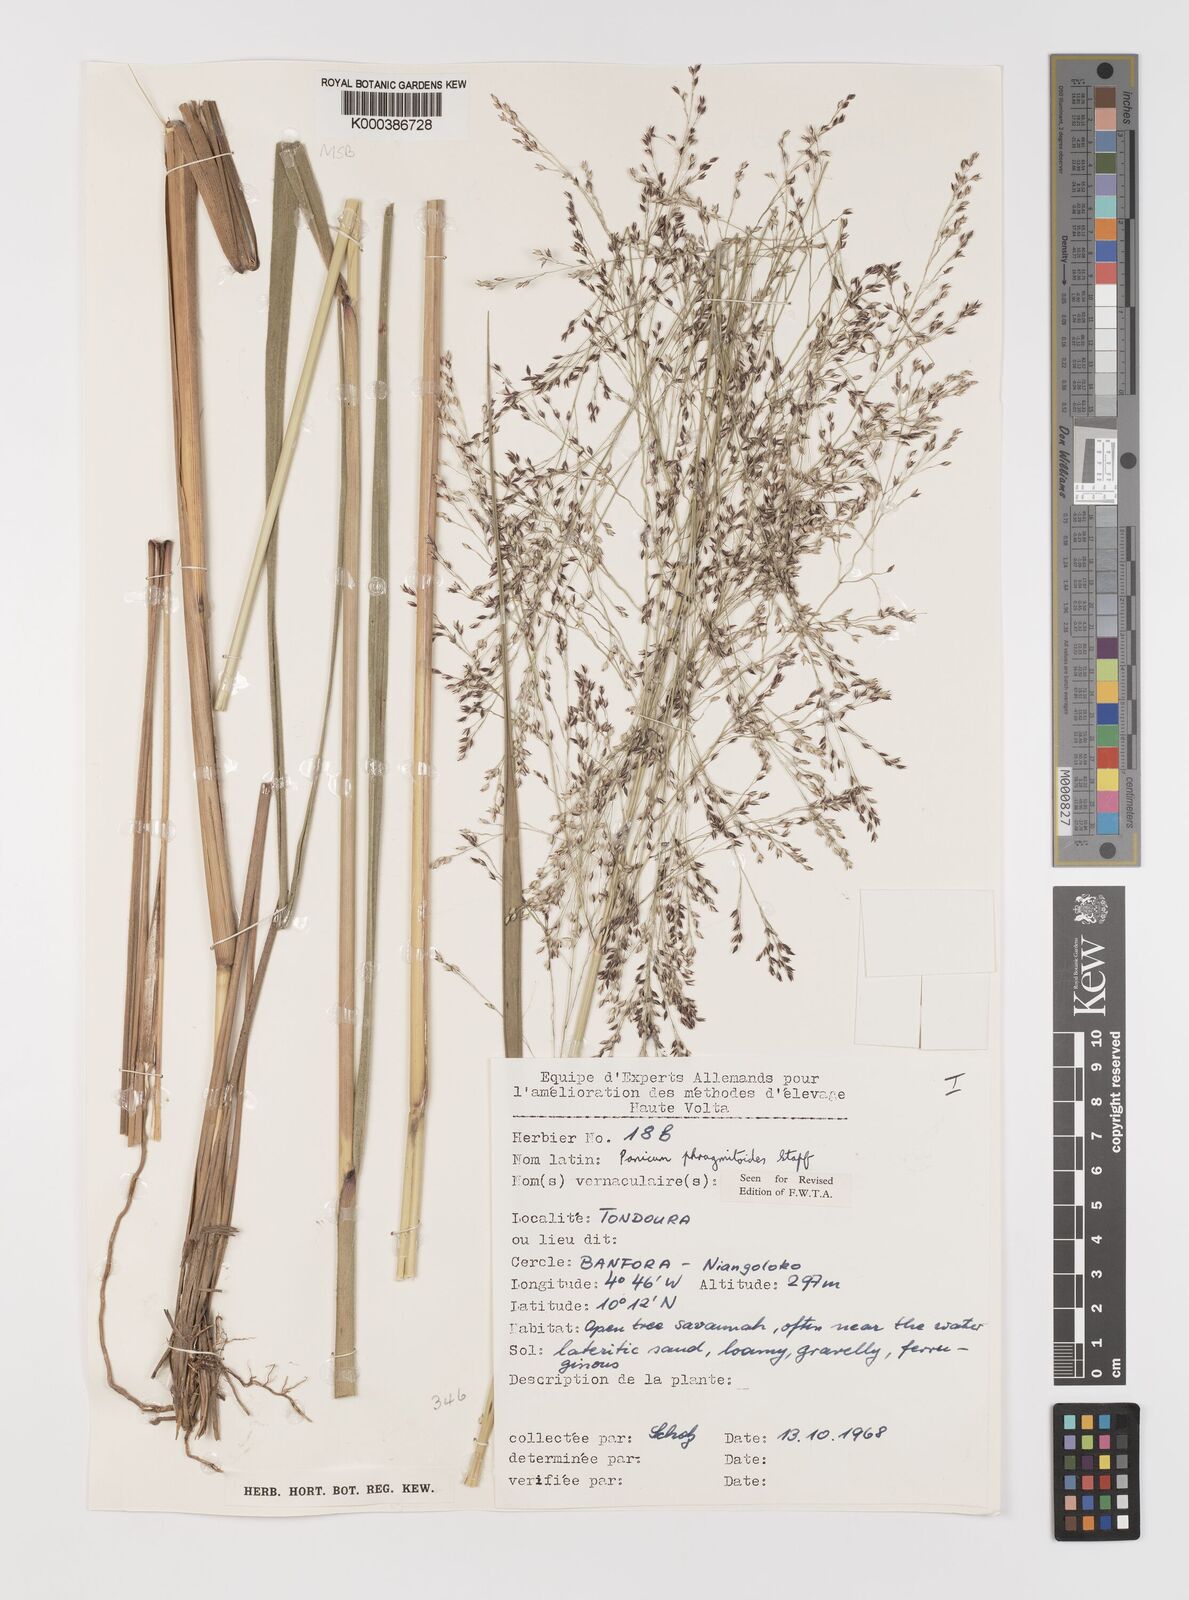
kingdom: Plantae
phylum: Tracheophyta
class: Liliopsida
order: Poales
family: Poaceae
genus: Panicum
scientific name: Panicum phragmitoides
